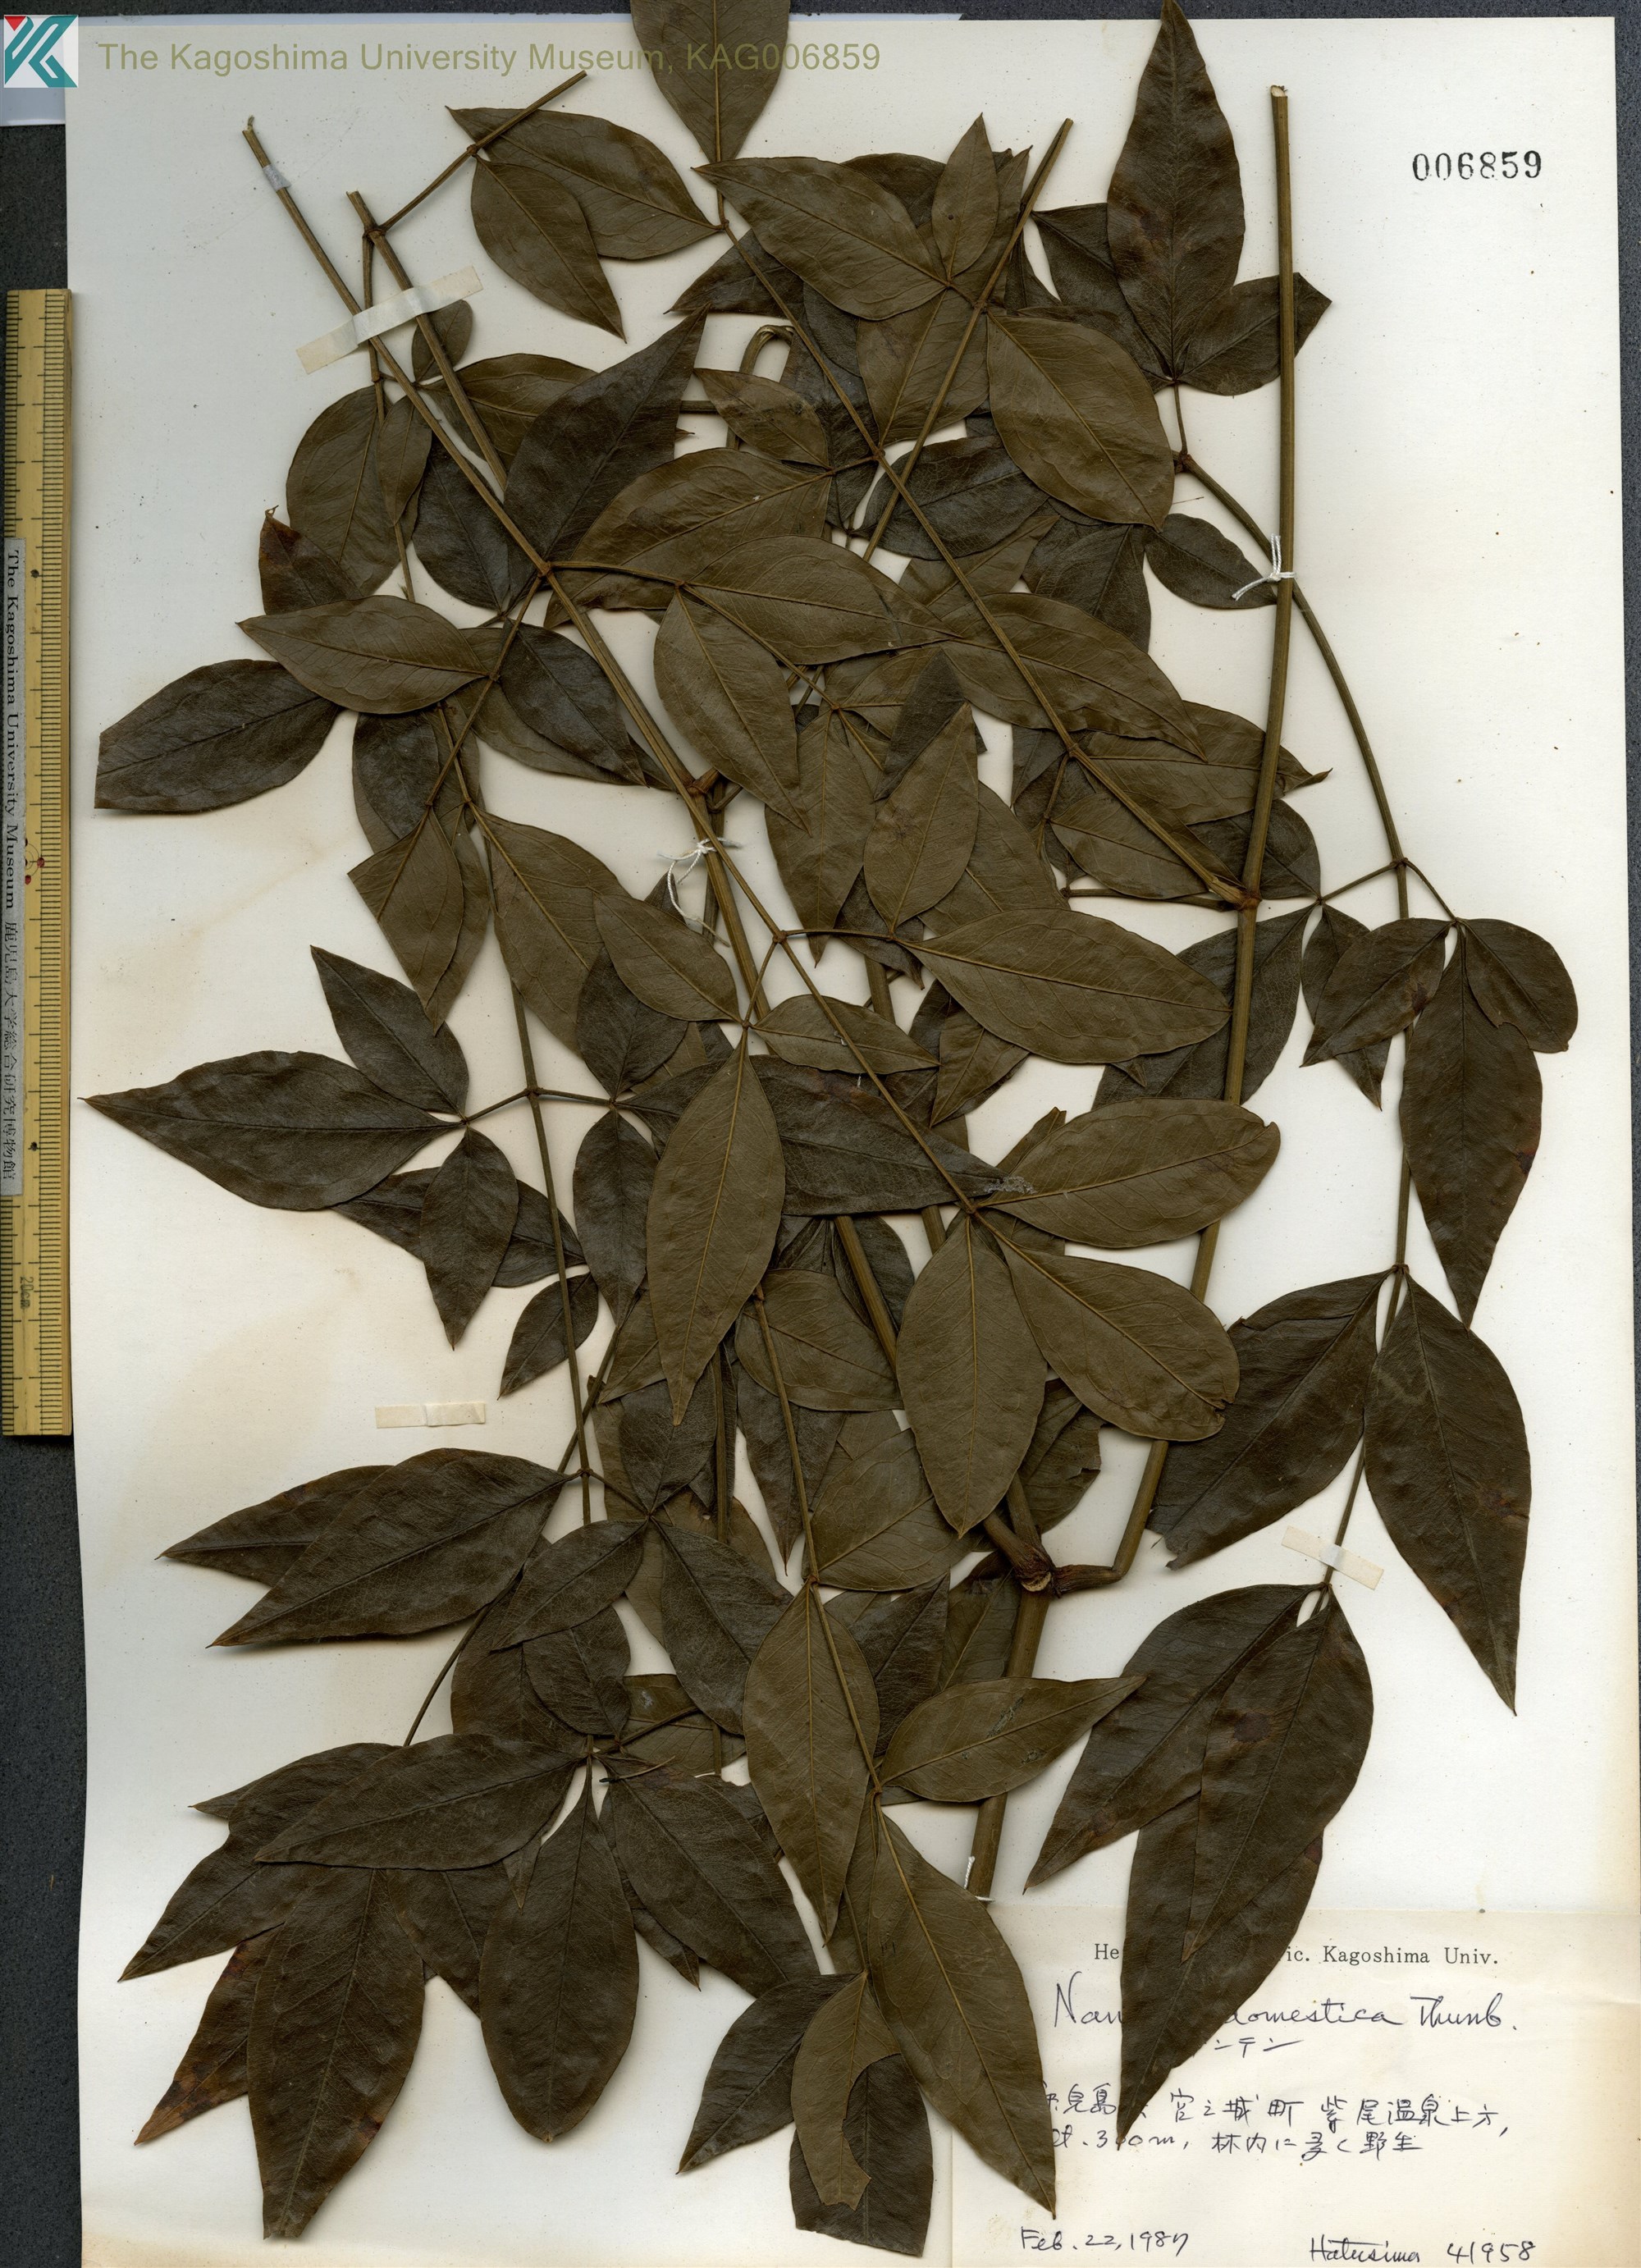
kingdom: Plantae
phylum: Tracheophyta
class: Magnoliopsida
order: Ranunculales
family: Berberidaceae
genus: Nandina
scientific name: Nandina domestica
